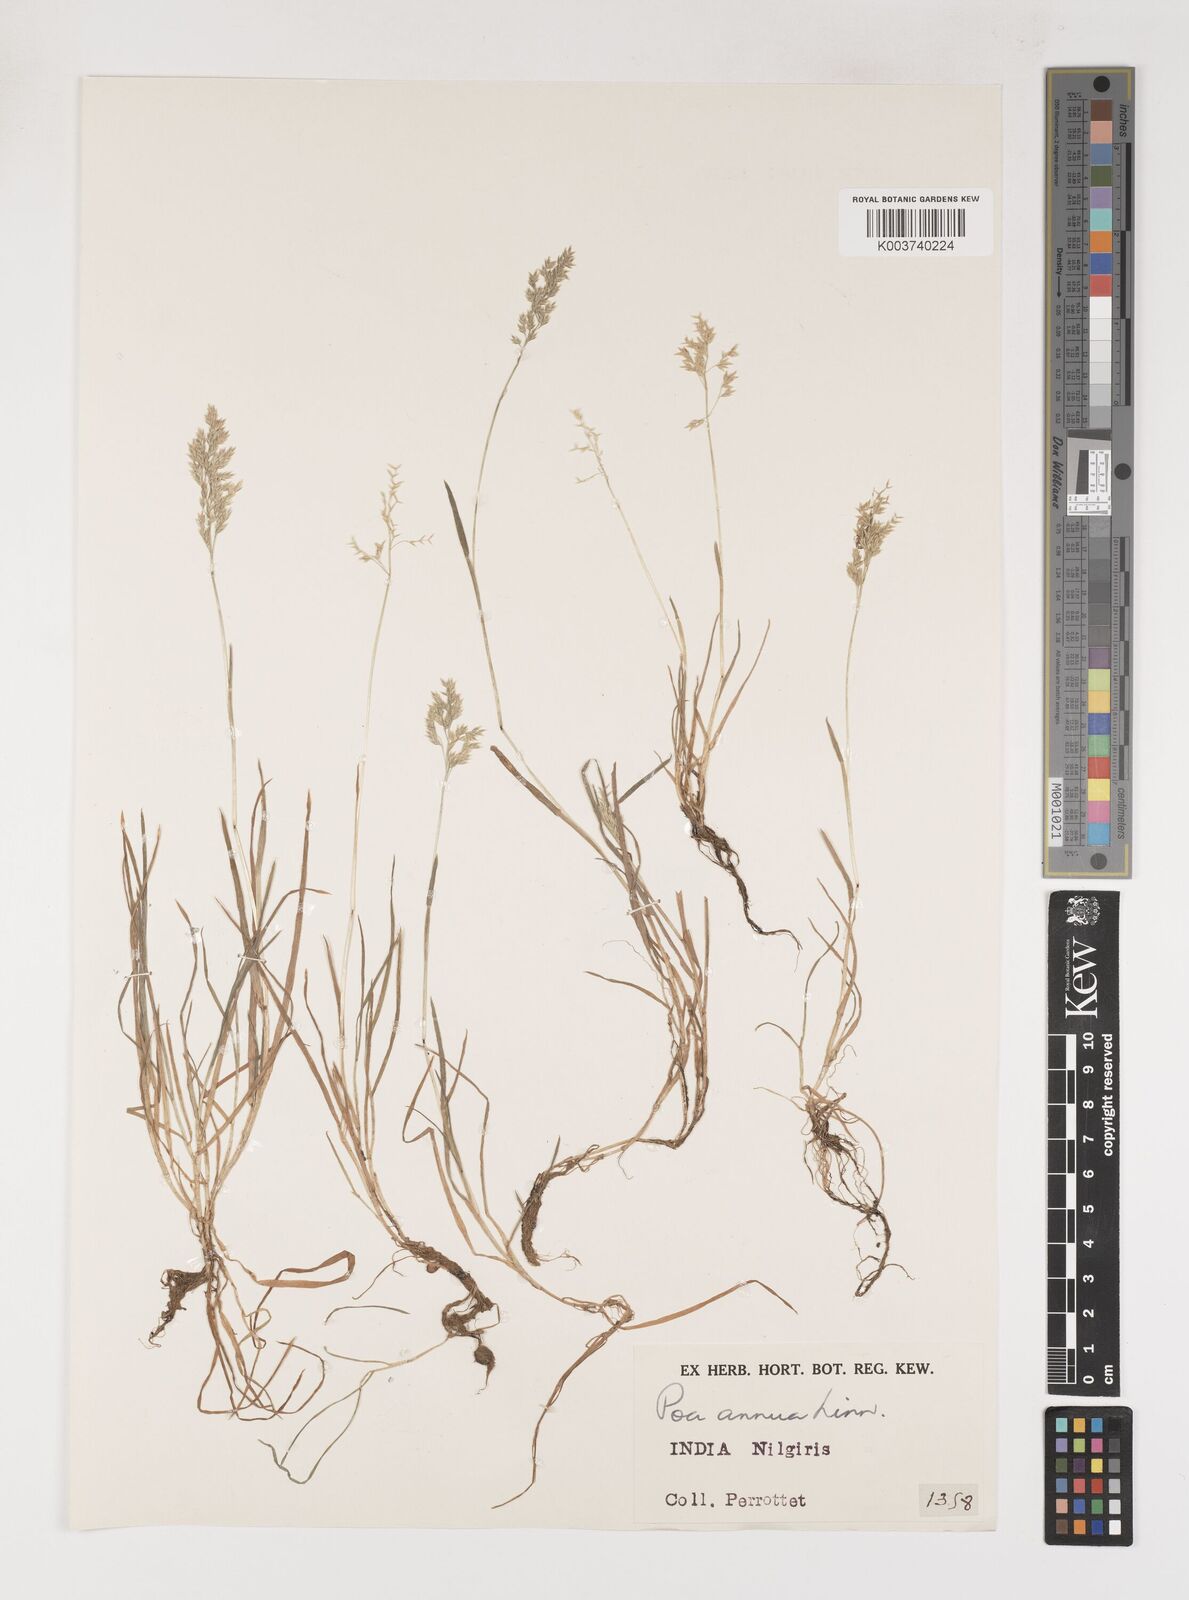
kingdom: Plantae
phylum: Tracheophyta
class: Liliopsida
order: Poales
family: Poaceae
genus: Poa
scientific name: Poa annua
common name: Annual bluegrass
